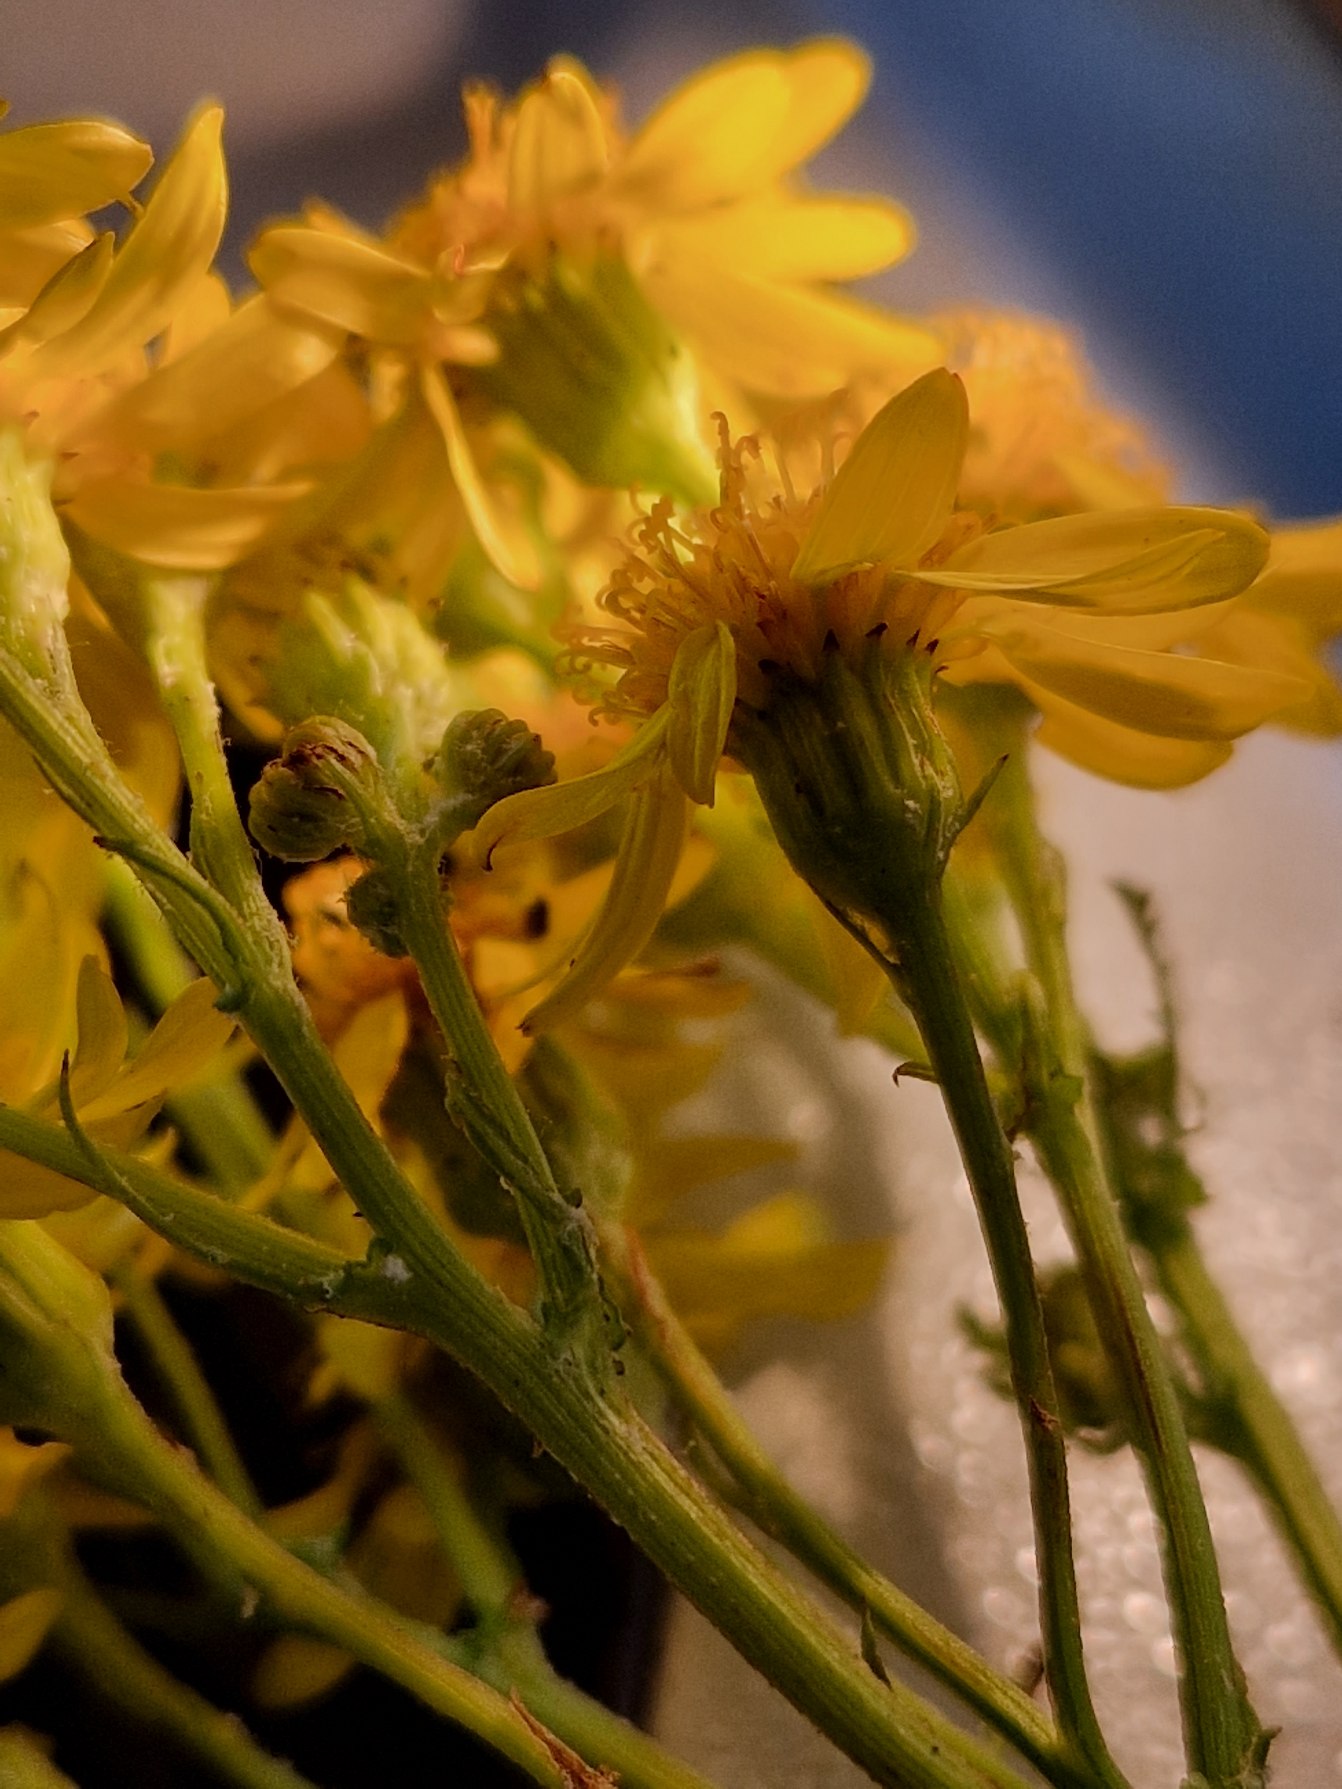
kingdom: Plantae
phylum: Tracheophyta
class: Magnoliopsida
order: Asterales
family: Asteraceae
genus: Jacobaea
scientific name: Jacobaea vulgaris
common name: Eng-brandbæger
